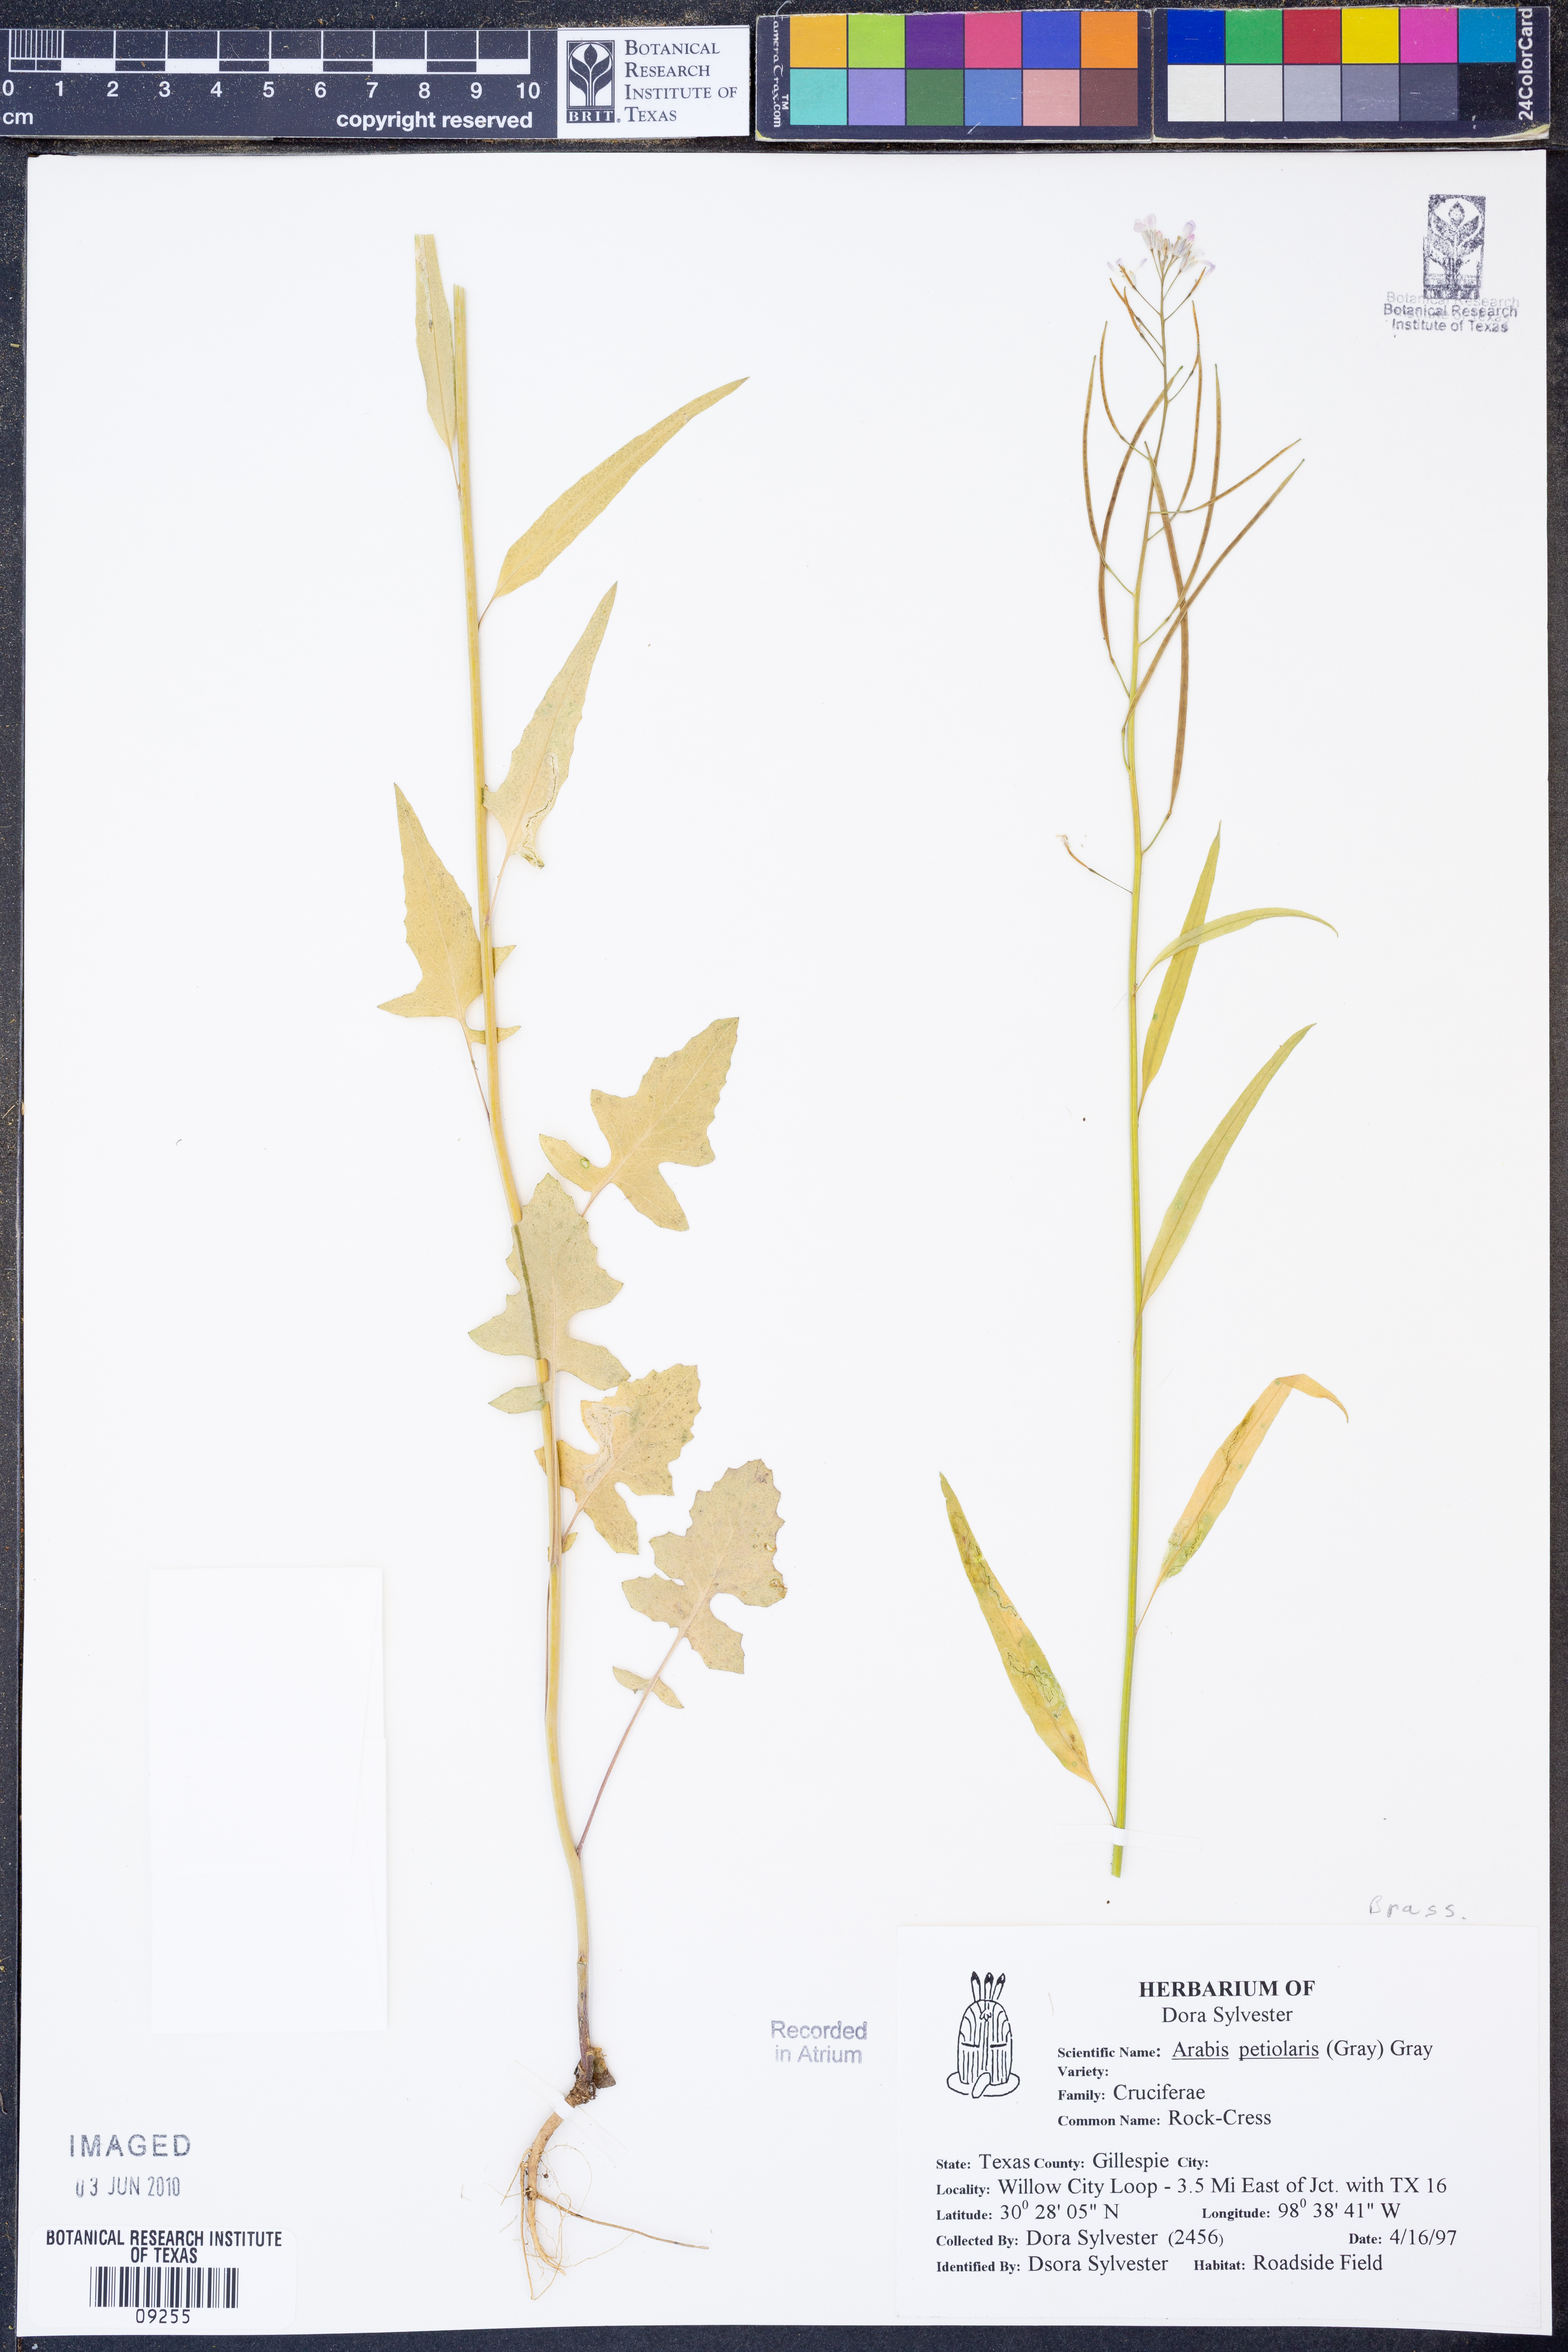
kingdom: Plantae
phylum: Tracheophyta
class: Magnoliopsida
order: Brassicales
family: Brassicaceae
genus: Streptanthus
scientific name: Streptanthus petiolaris
